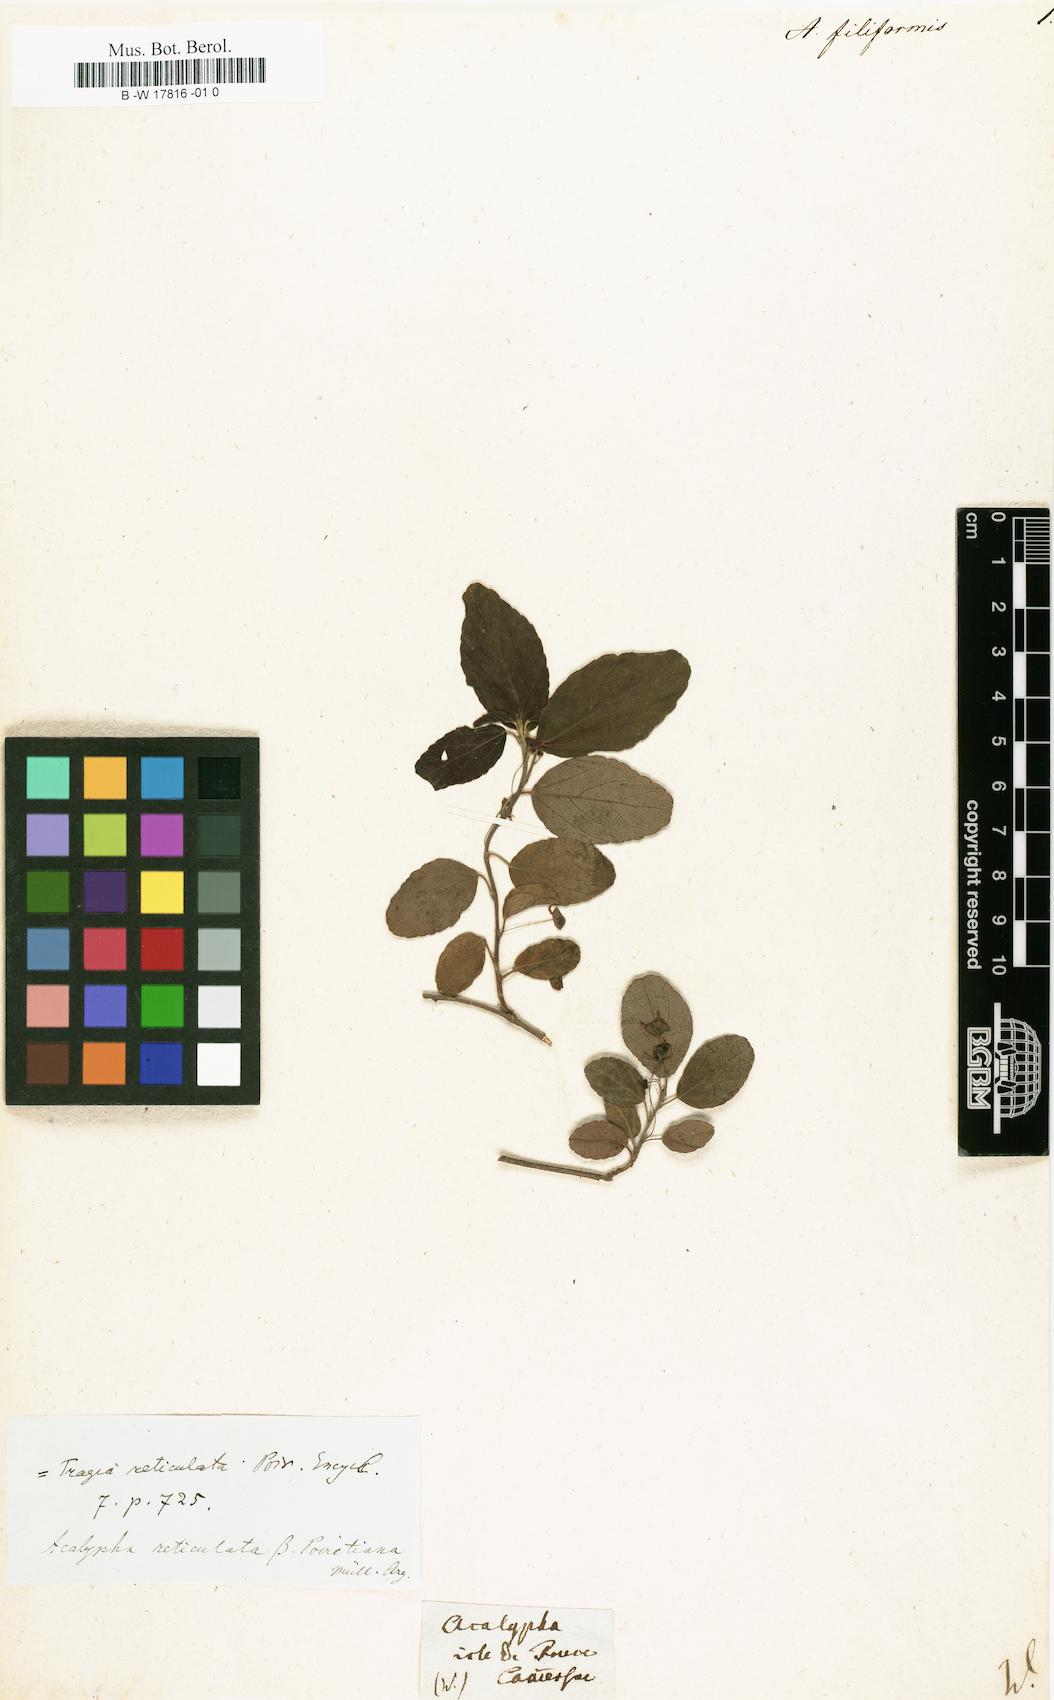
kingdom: Plantae
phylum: Tracheophyta
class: Magnoliopsida
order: Malpighiales
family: Euphorbiaceae
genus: Acalypha
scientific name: Acalypha schlechtendaliana
